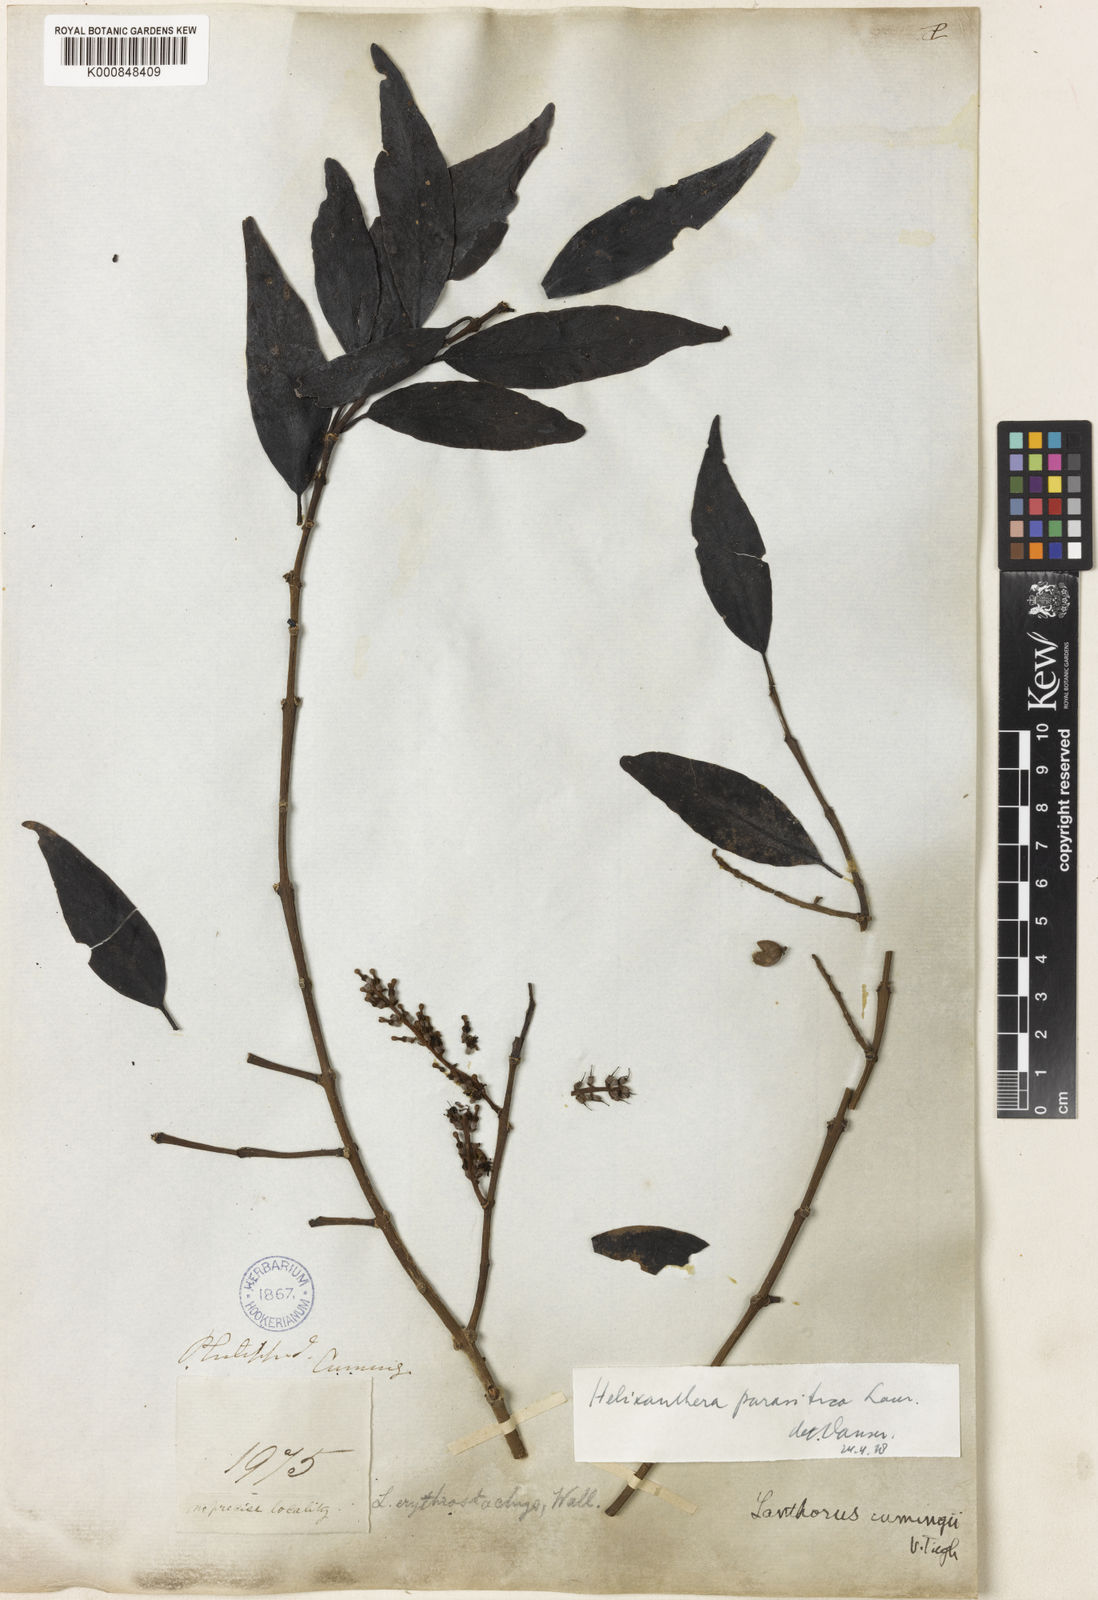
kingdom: Plantae
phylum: Tracheophyta
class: Magnoliopsida
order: Santalales
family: Loranthaceae
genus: Helixanthera
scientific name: Helixanthera parasitica
